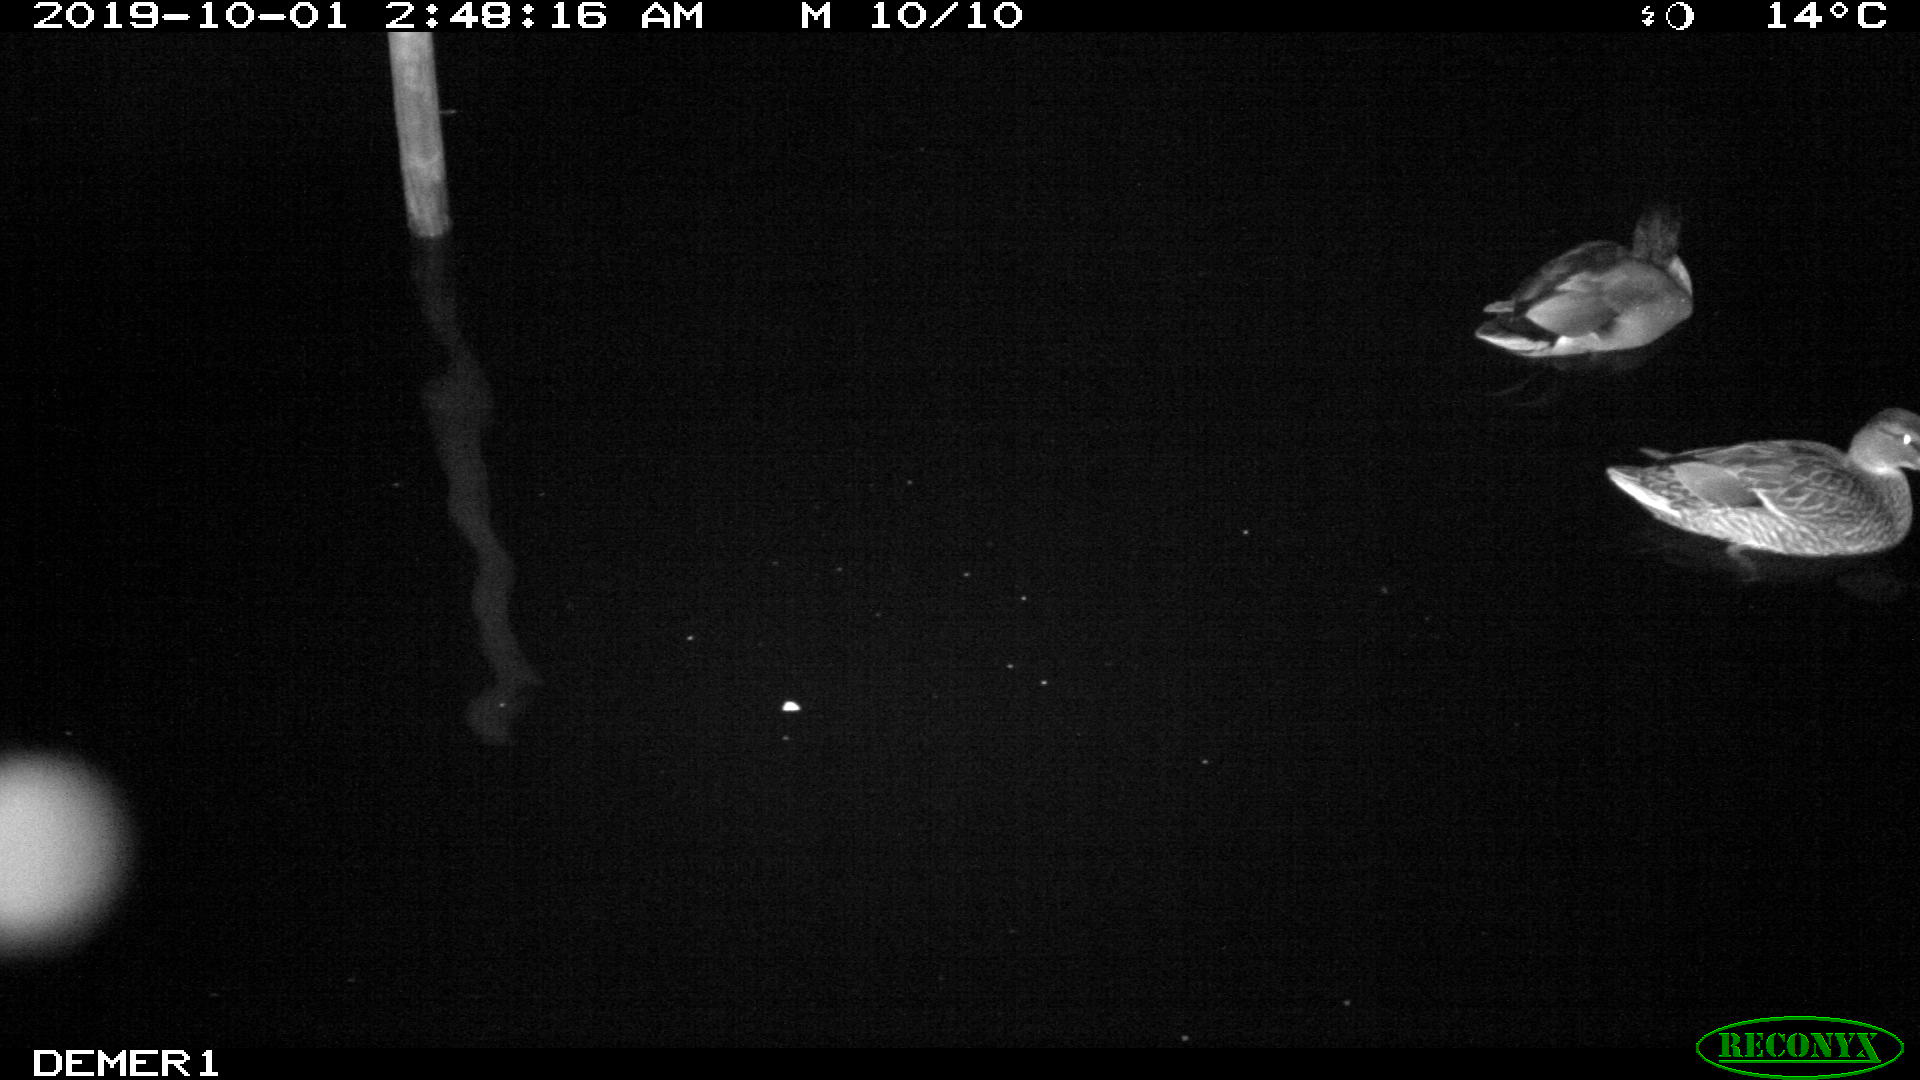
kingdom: Animalia
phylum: Chordata
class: Aves
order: Anseriformes
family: Anatidae
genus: Anas
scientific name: Anas platyrhynchos
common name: Mallard
